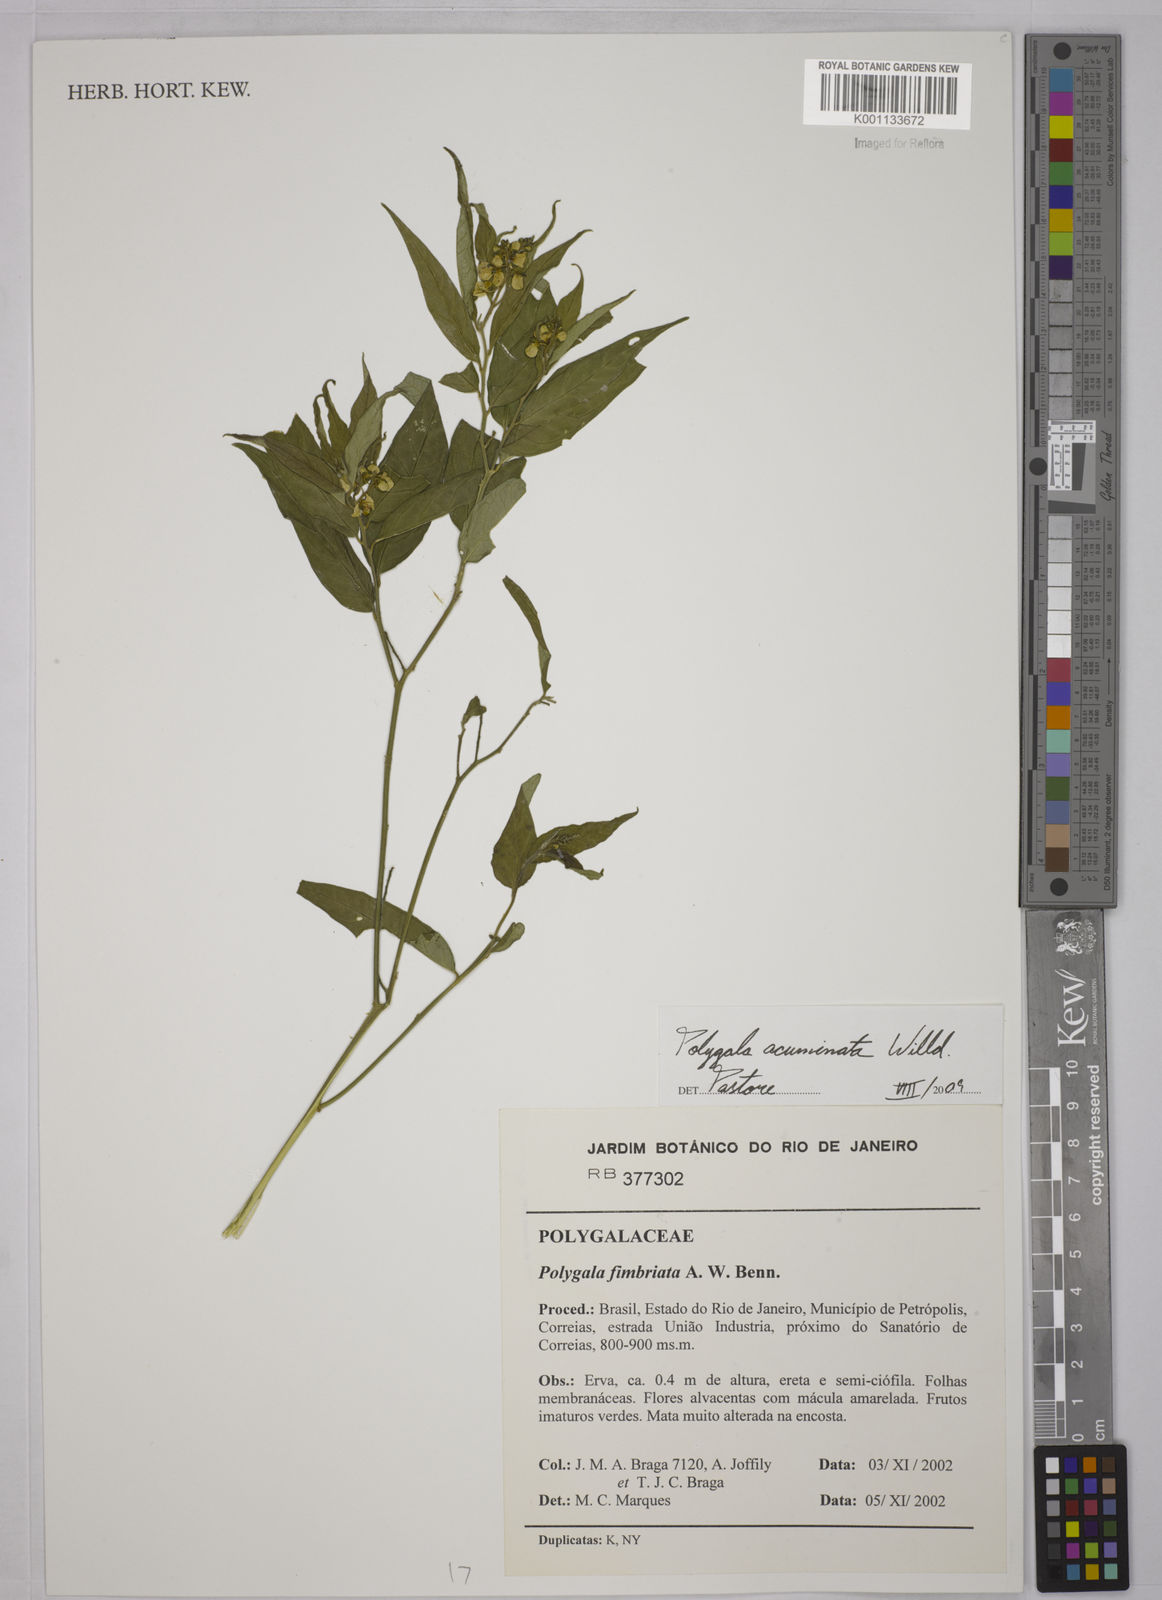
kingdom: Plantae
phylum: Tracheophyta
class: Magnoliopsida
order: Fabales
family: Polygalaceae
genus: Asemeia
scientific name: Asemeia acuminata
